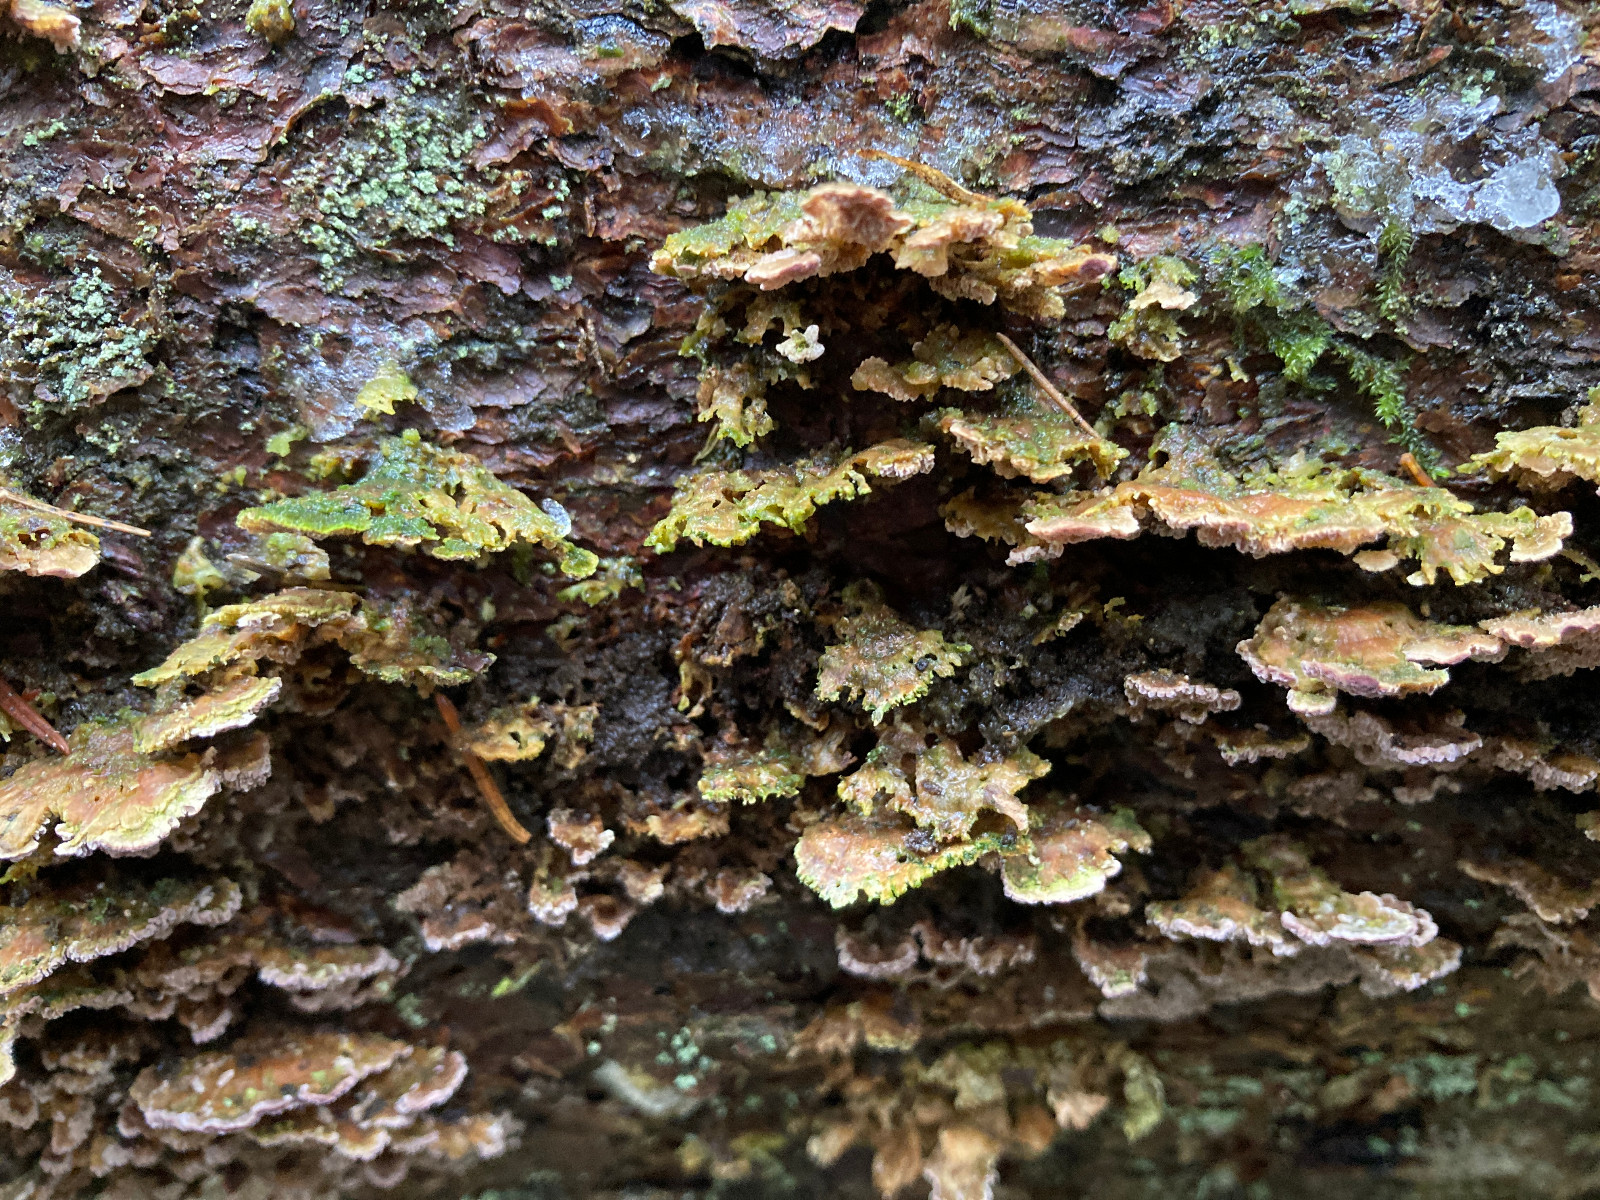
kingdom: Fungi
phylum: Basidiomycota
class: Agaricomycetes
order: Polyporales
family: Polyporaceae
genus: Trichaptum
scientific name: Trichaptum
